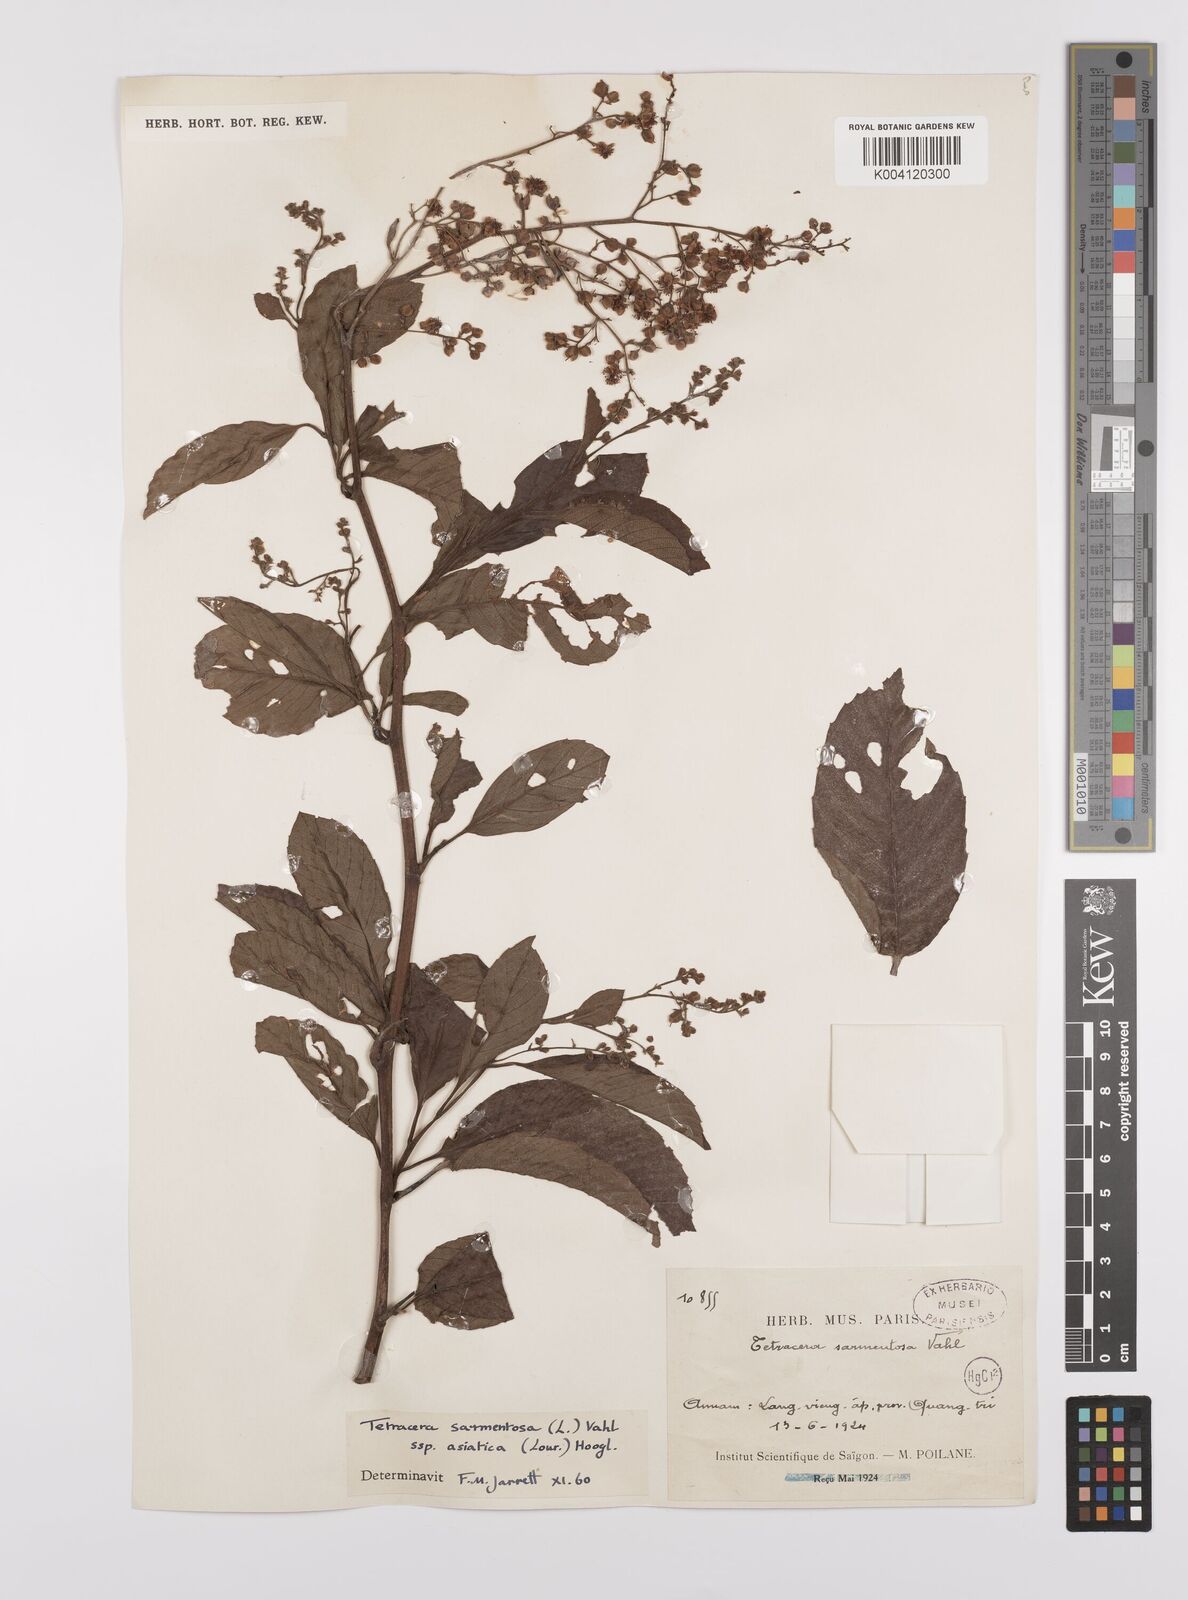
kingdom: Plantae
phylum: Tracheophyta
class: Magnoliopsida
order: Dilleniales
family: Dilleniaceae
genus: Tetracera
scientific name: Tetracera sarmentosa
